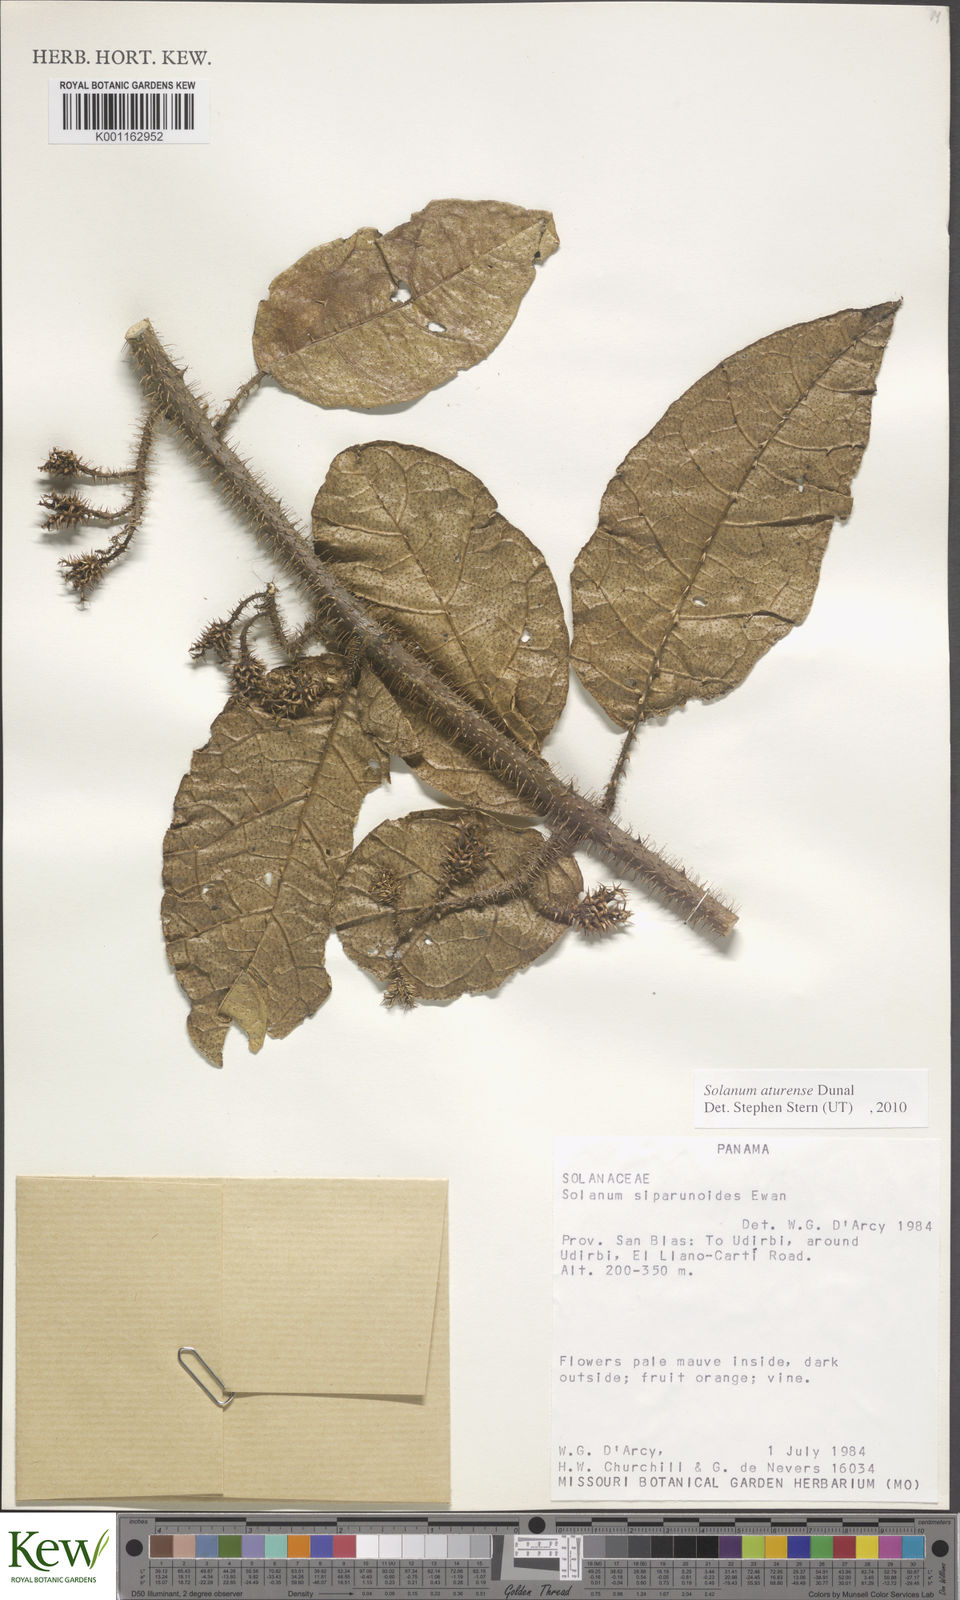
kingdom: Plantae
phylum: Tracheophyta
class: Magnoliopsida
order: Solanales
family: Solanaceae
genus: Solanum
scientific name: Solanum aturense
